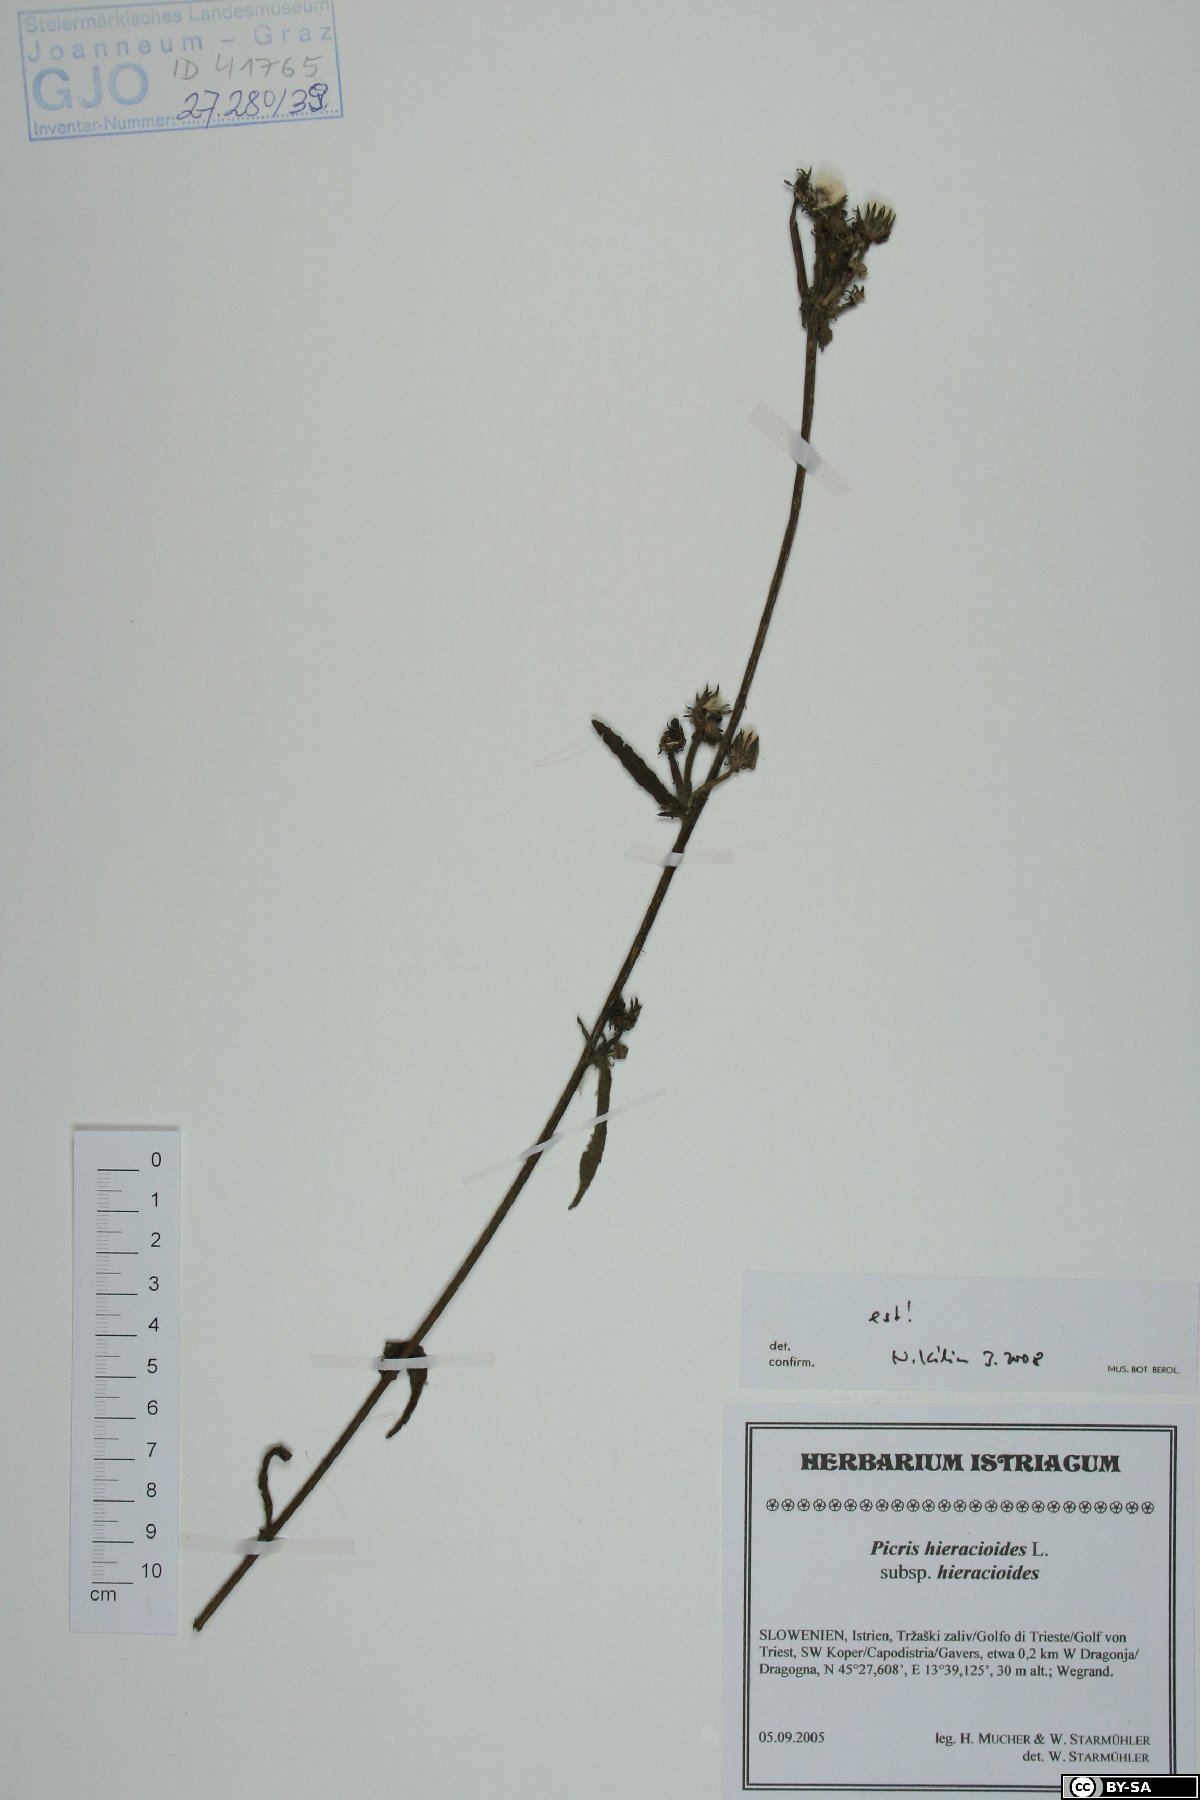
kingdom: Plantae
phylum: Tracheophyta
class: Magnoliopsida
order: Asterales
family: Asteraceae
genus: Picris
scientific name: Picris hieracioides
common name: Hawkweed oxtongue
